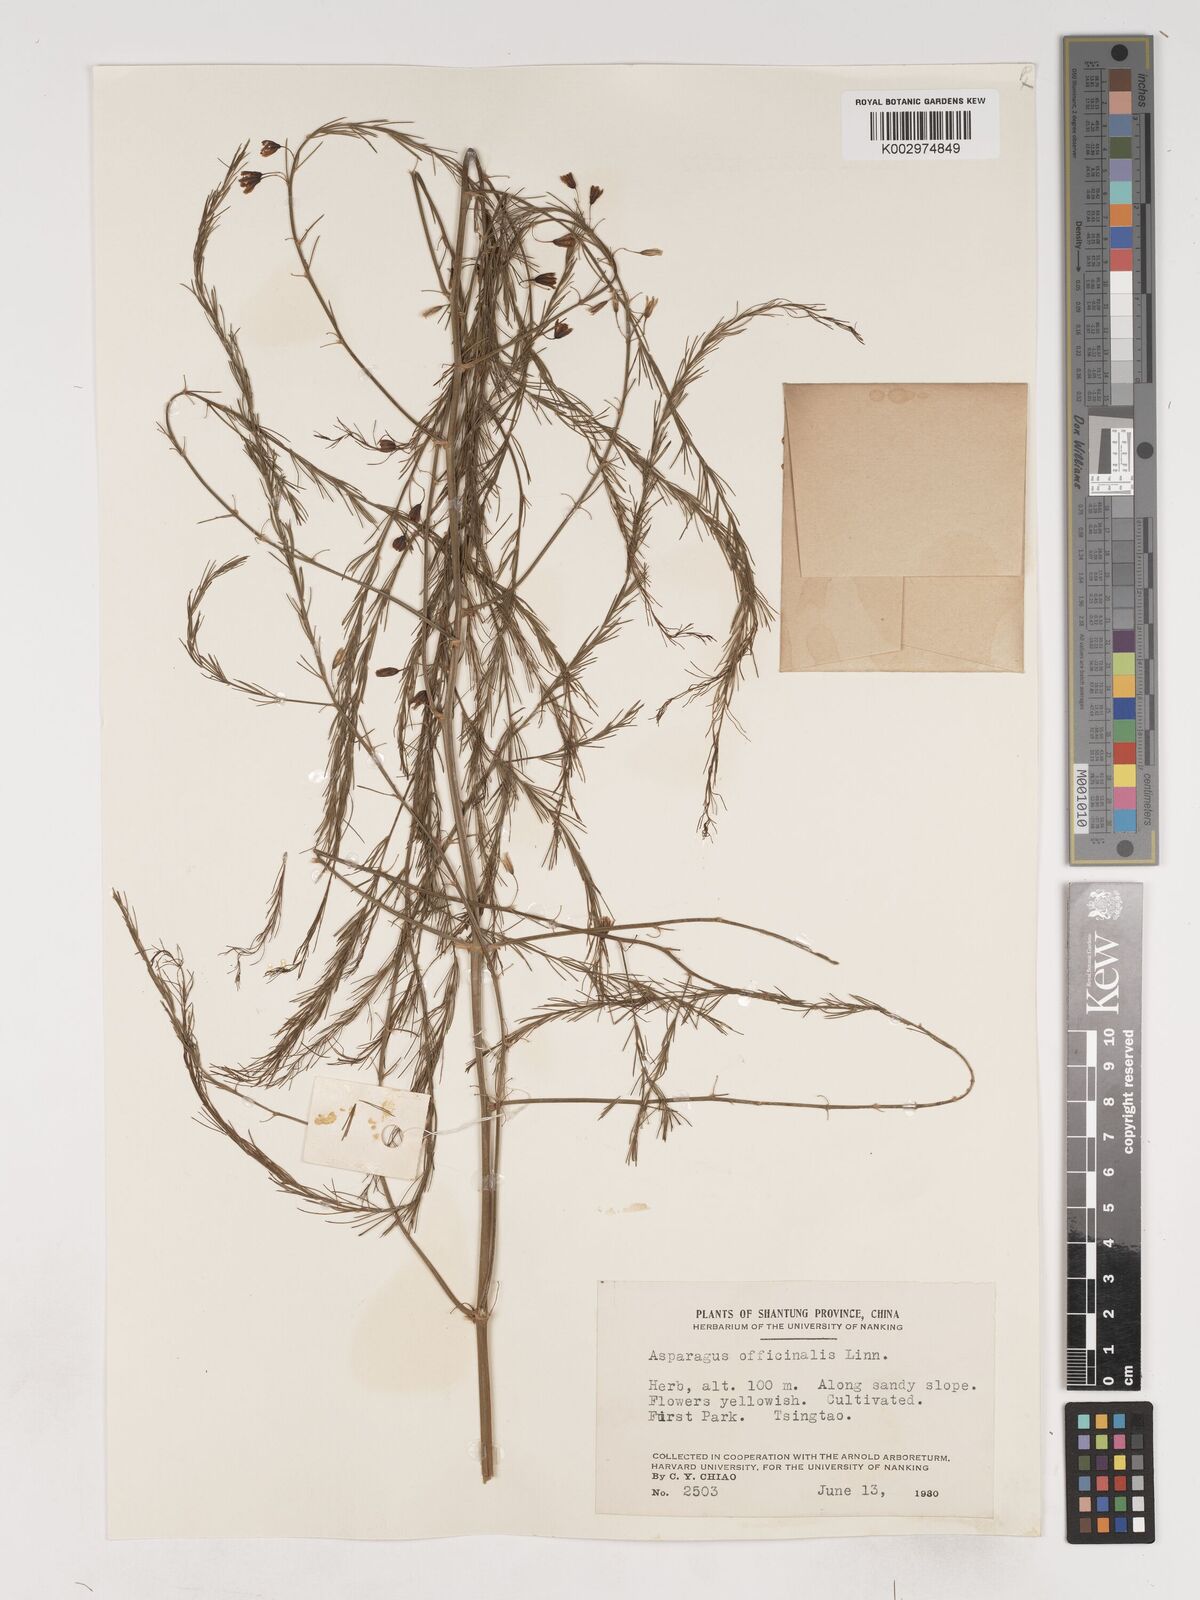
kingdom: Plantae
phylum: Tracheophyta
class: Liliopsida
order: Asparagales
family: Asparagaceae
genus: Asparagus
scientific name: Asparagus officinalis
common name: Garden asparagus
